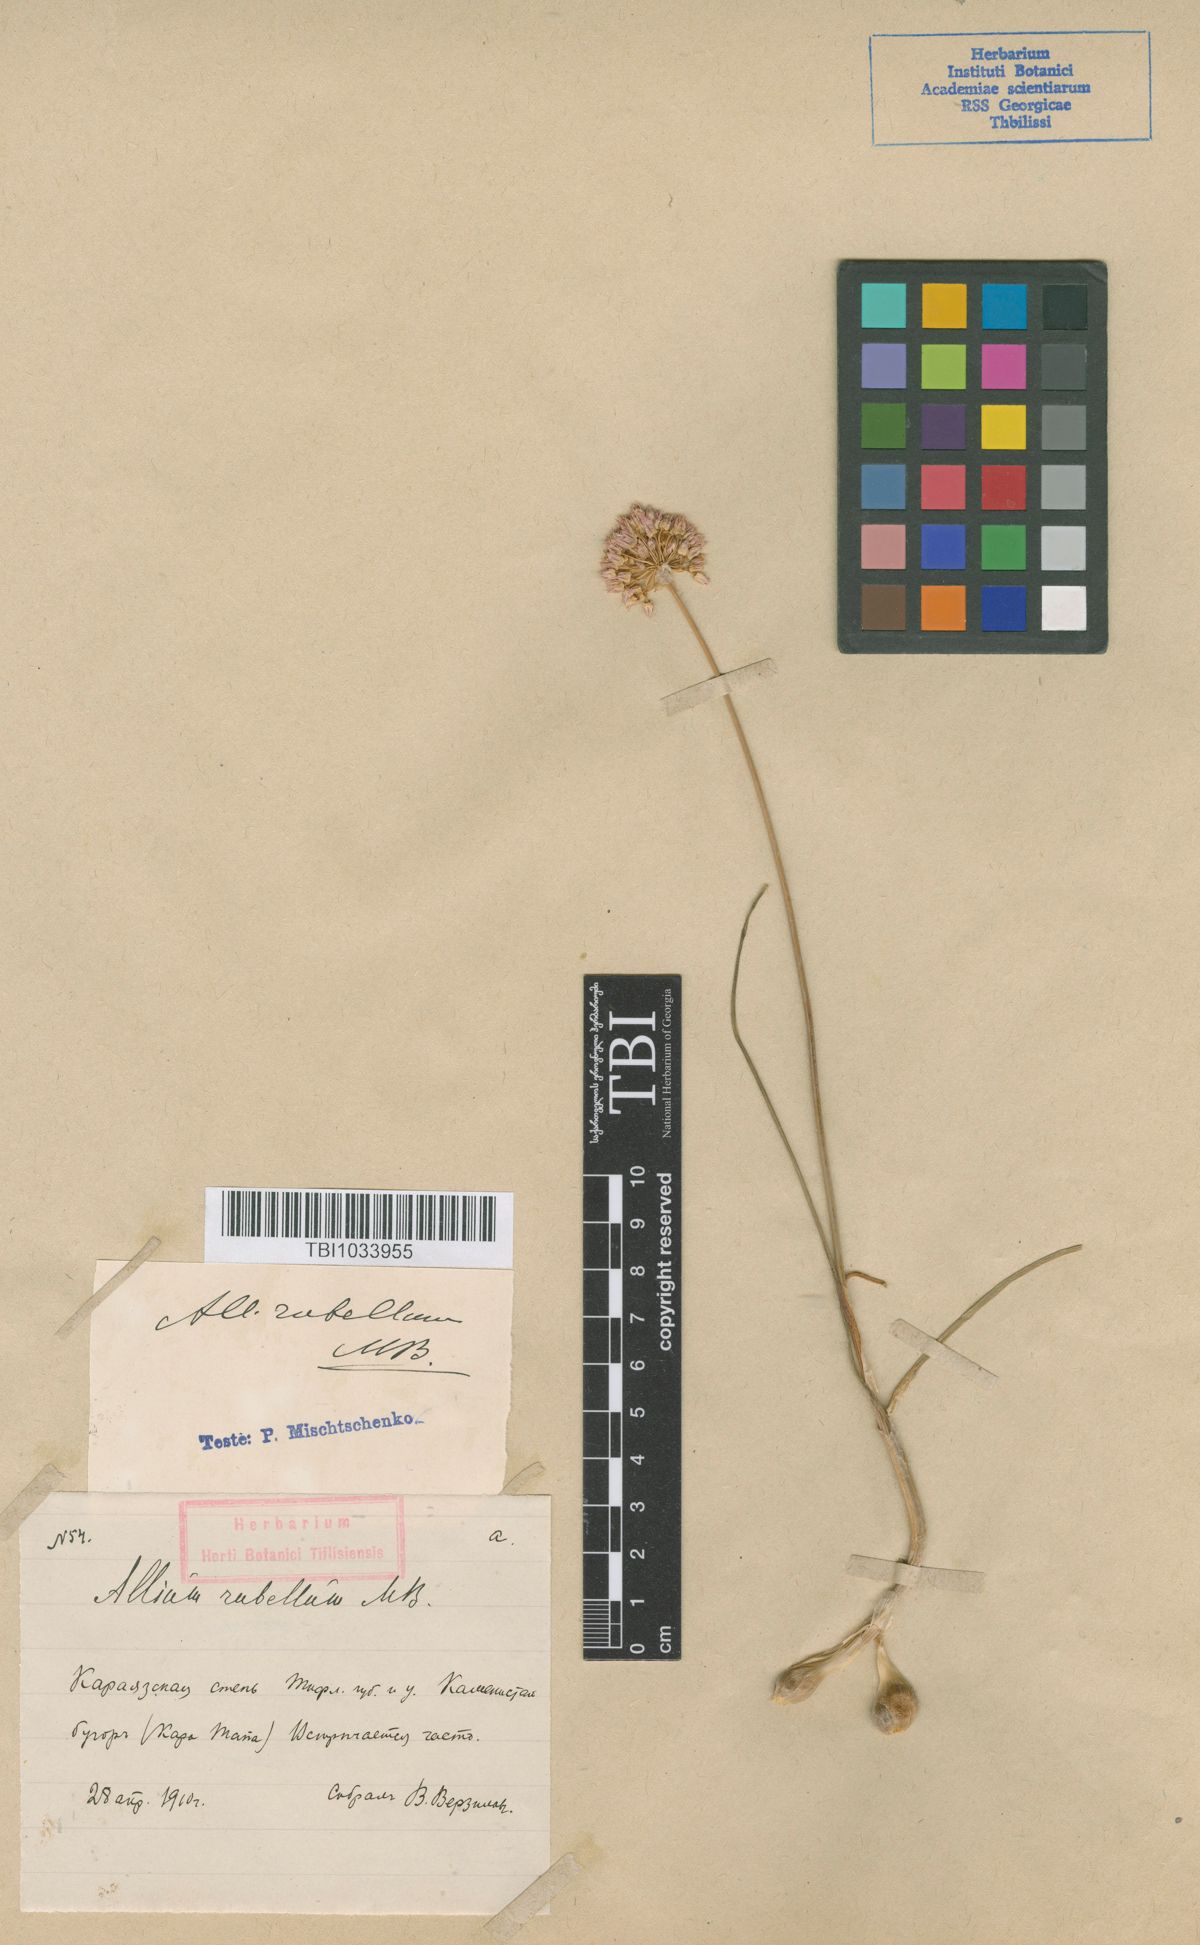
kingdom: Plantae
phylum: Tracheophyta
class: Liliopsida
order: Asparagales
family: Amaryllidaceae
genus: Allium
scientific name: Allium rubellum
